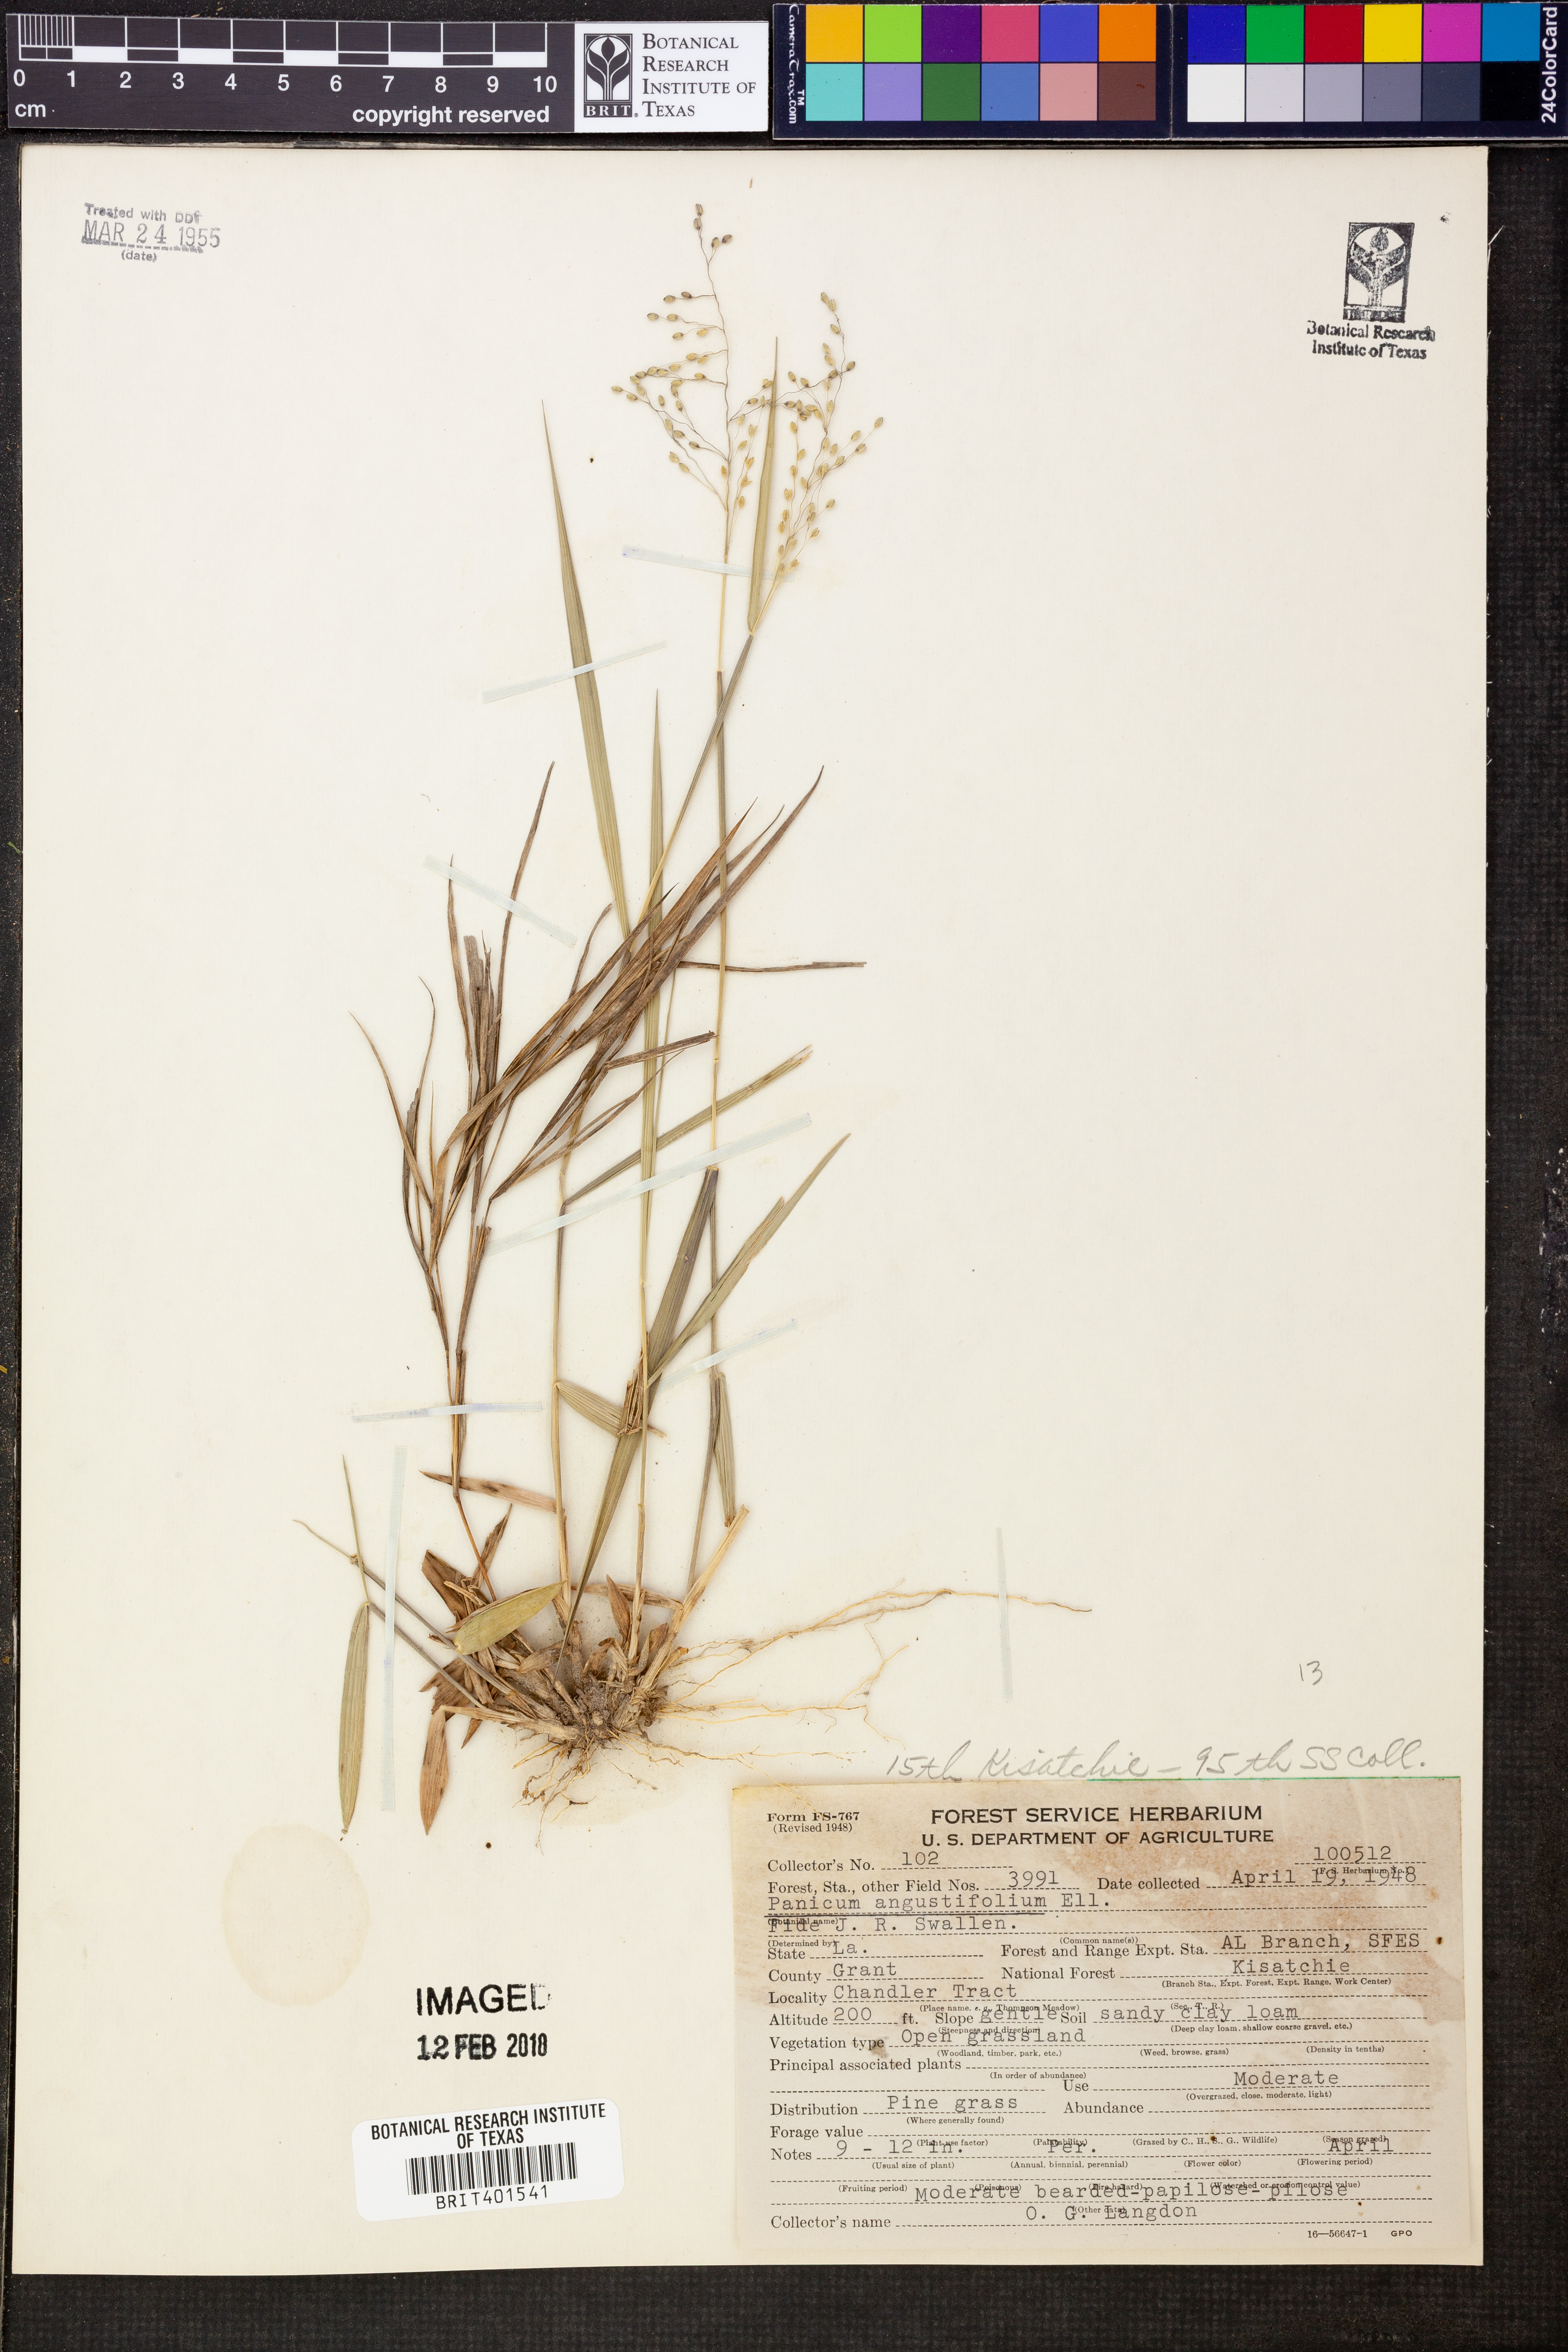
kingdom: Plantae
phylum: Tracheophyta
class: Liliopsida
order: Poales
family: Poaceae
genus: Dichanthelium
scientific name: Dichanthelium dichotomum
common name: Cypress panicgrass
